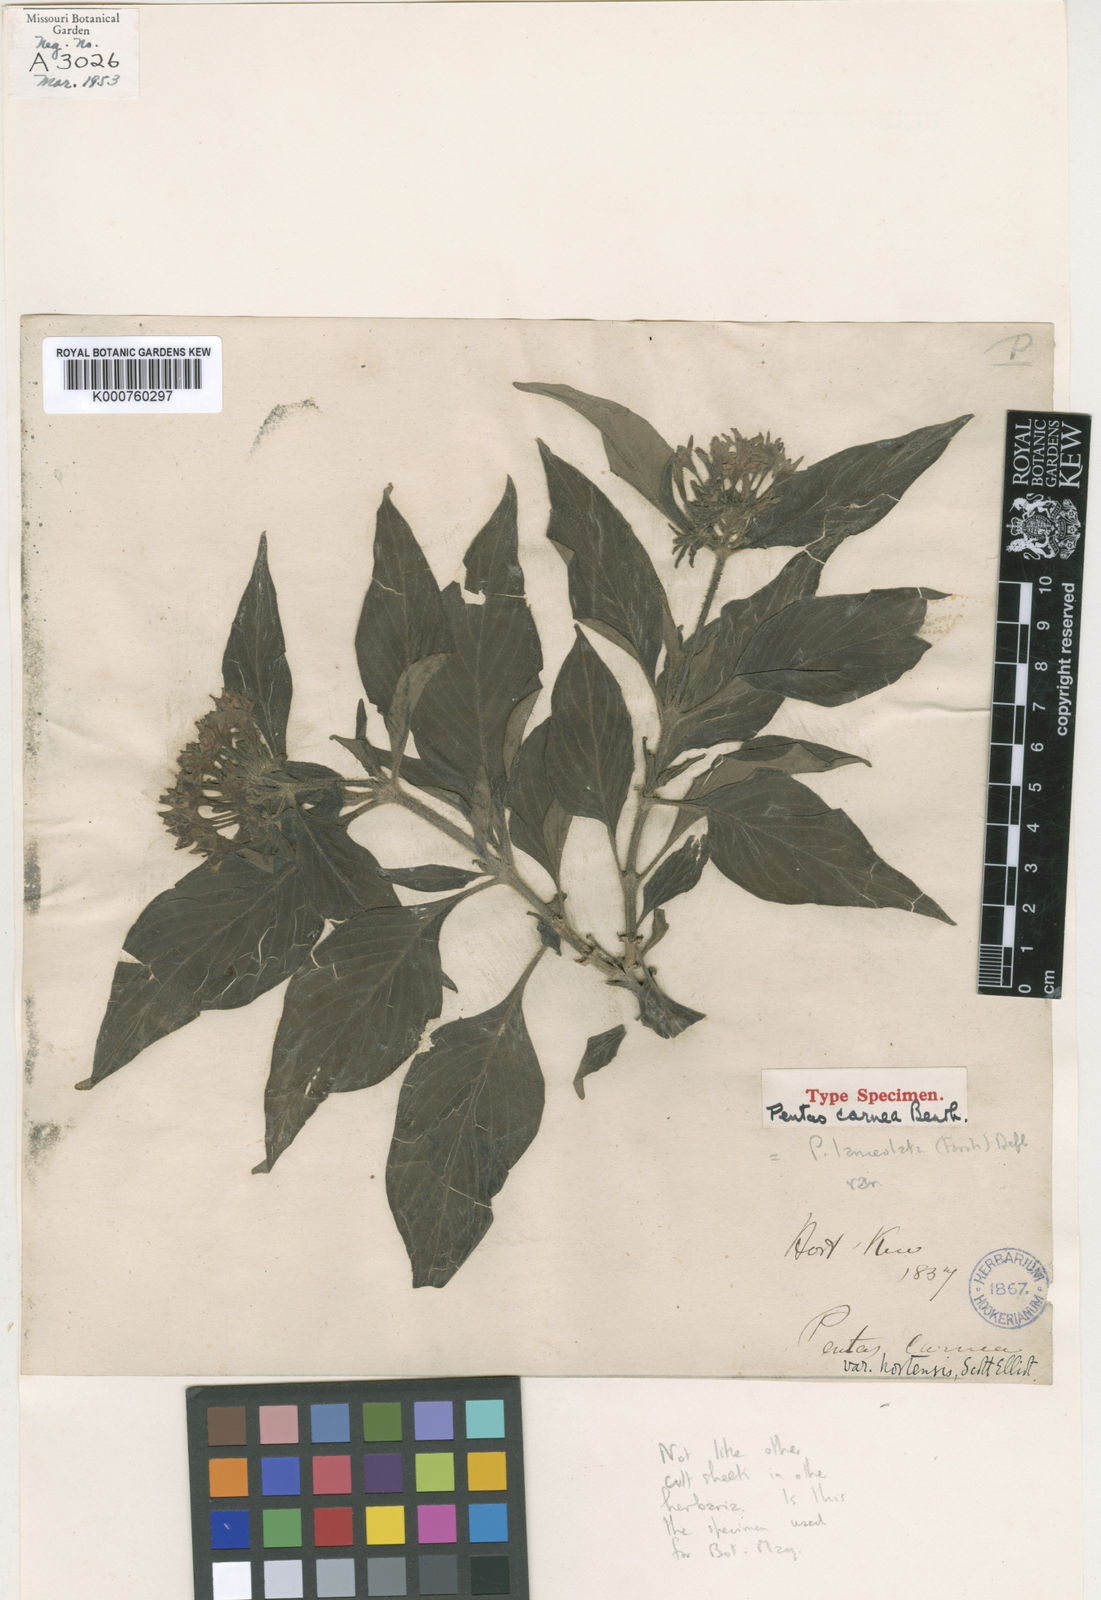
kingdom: Plantae
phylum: Tracheophyta
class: Magnoliopsida
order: Gentianales
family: Rubiaceae
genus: Pentas
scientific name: Pentas lanceolata
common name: Egyptian starcluster
